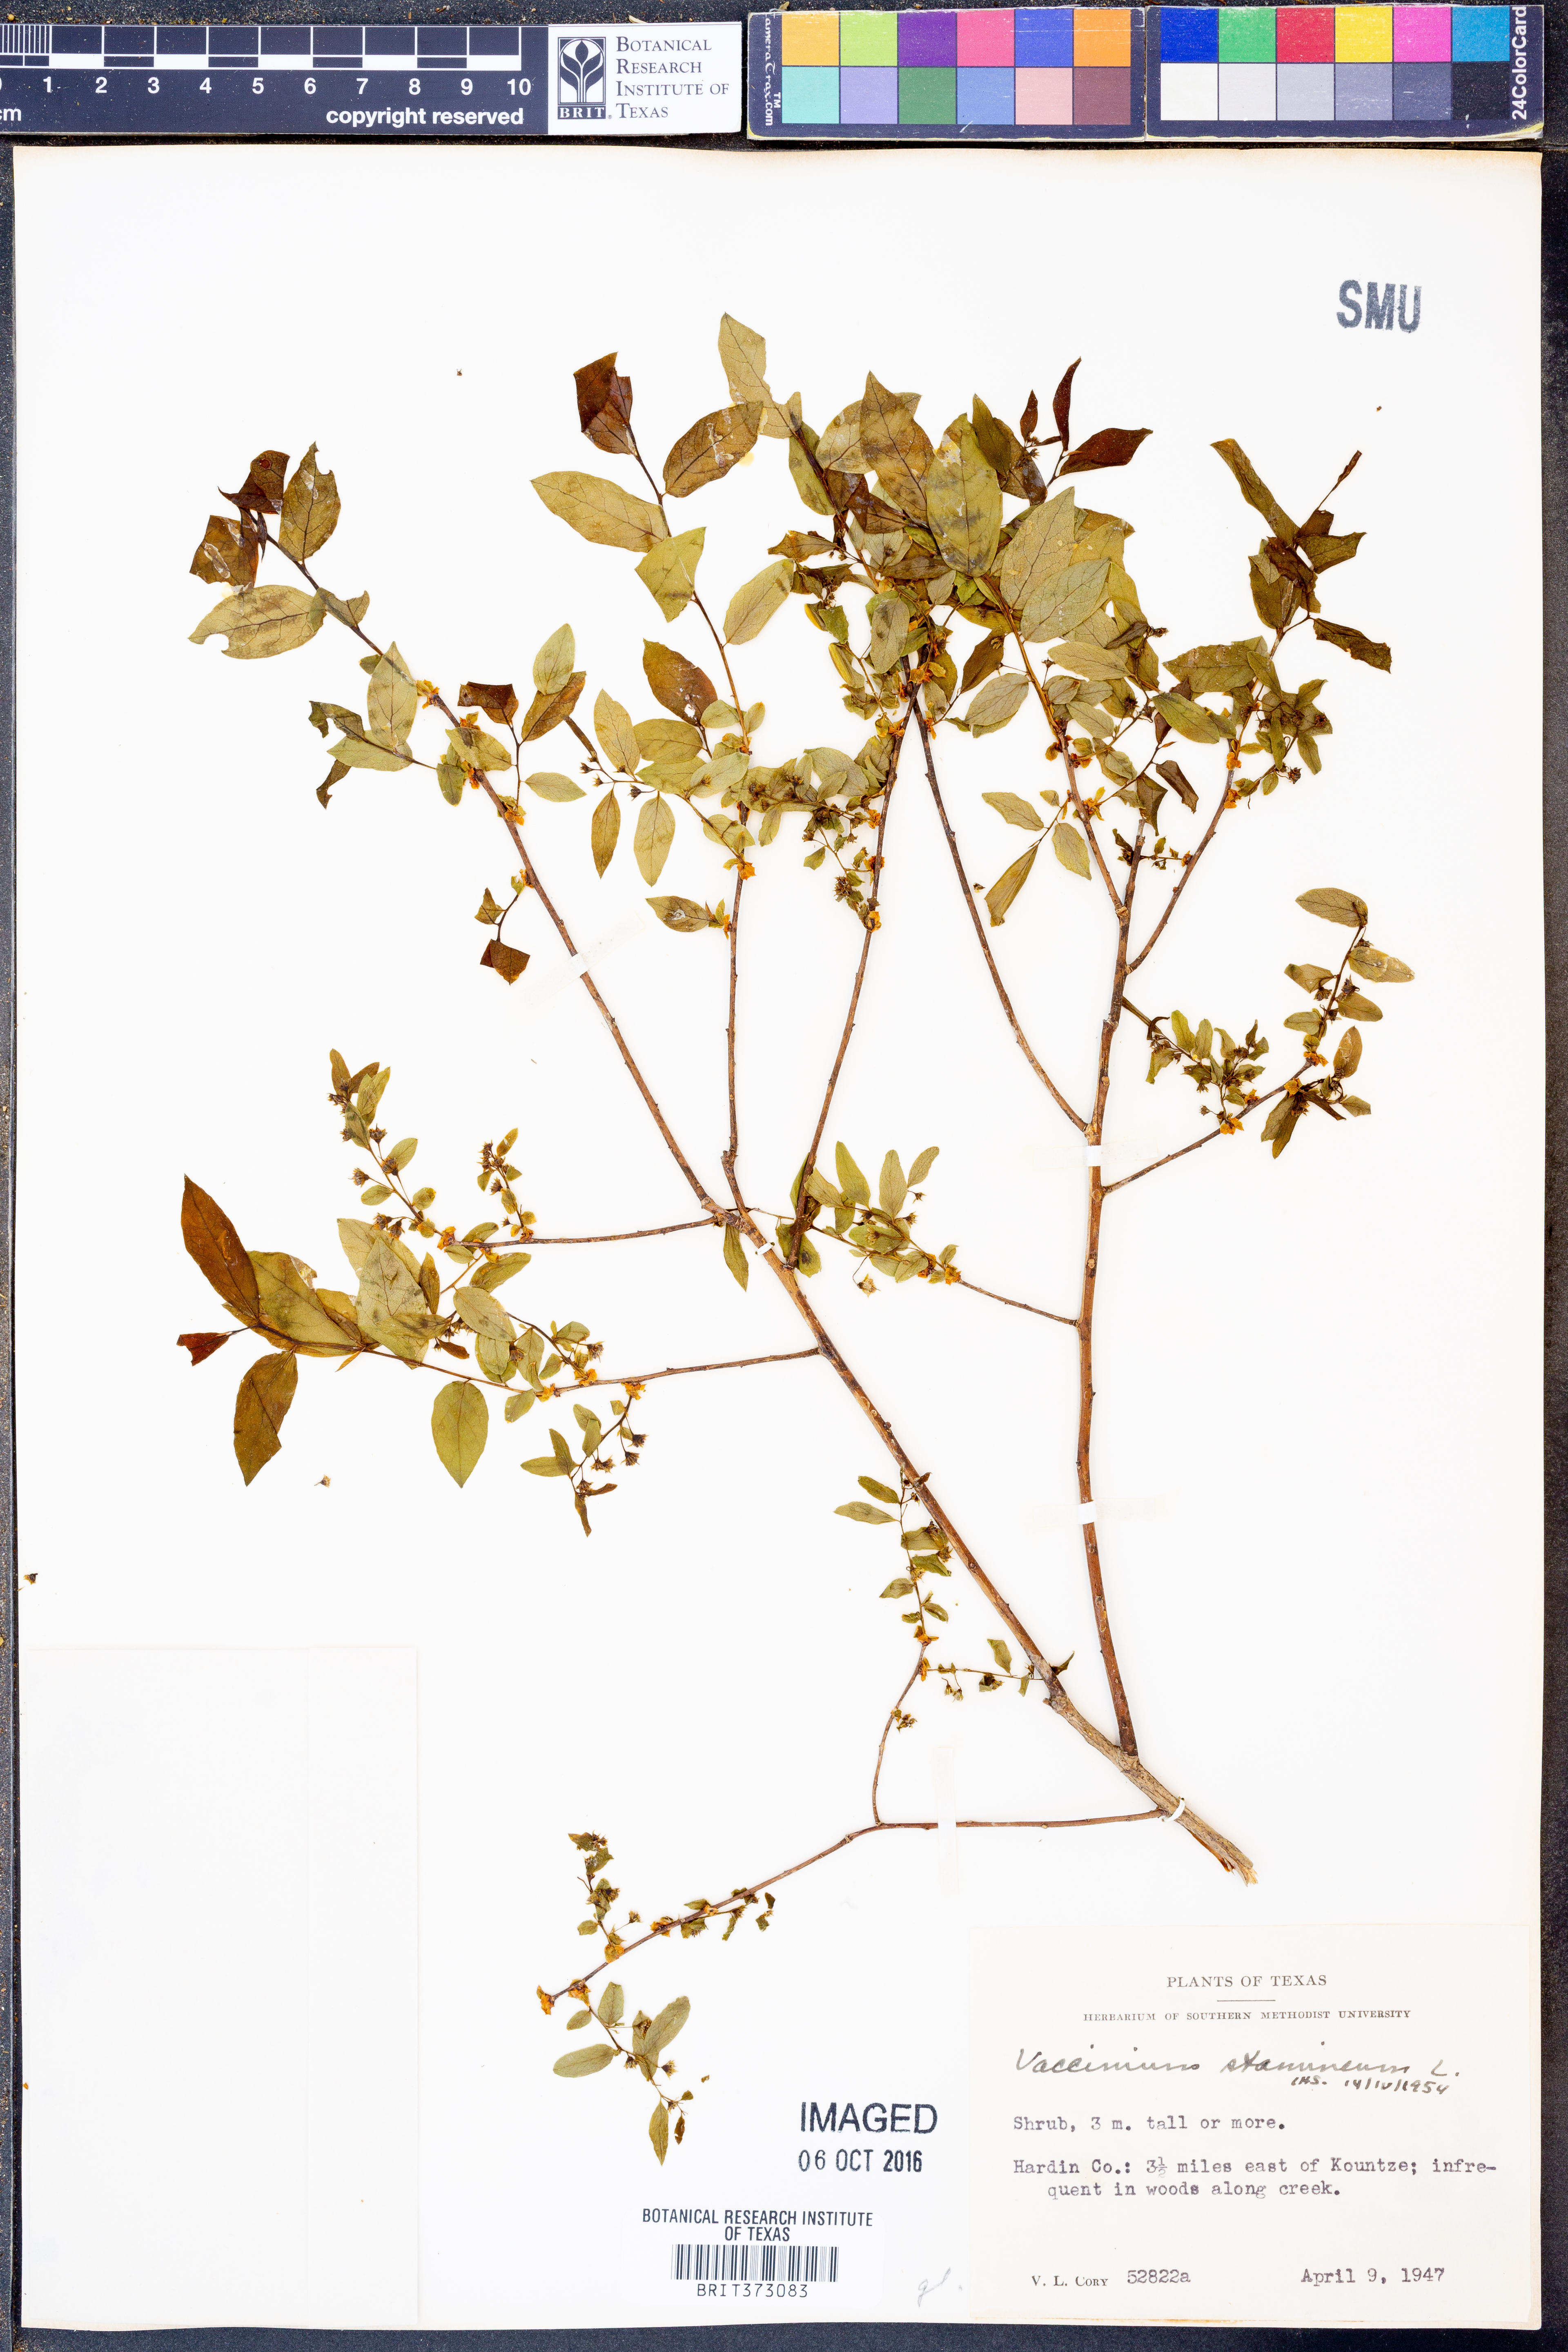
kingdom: Plantae
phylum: Tracheophyta
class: Magnoliopsida
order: Ericales
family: Ericaceae
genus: Vaccinium
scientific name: Vaccinium stamineum
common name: Deerberry
